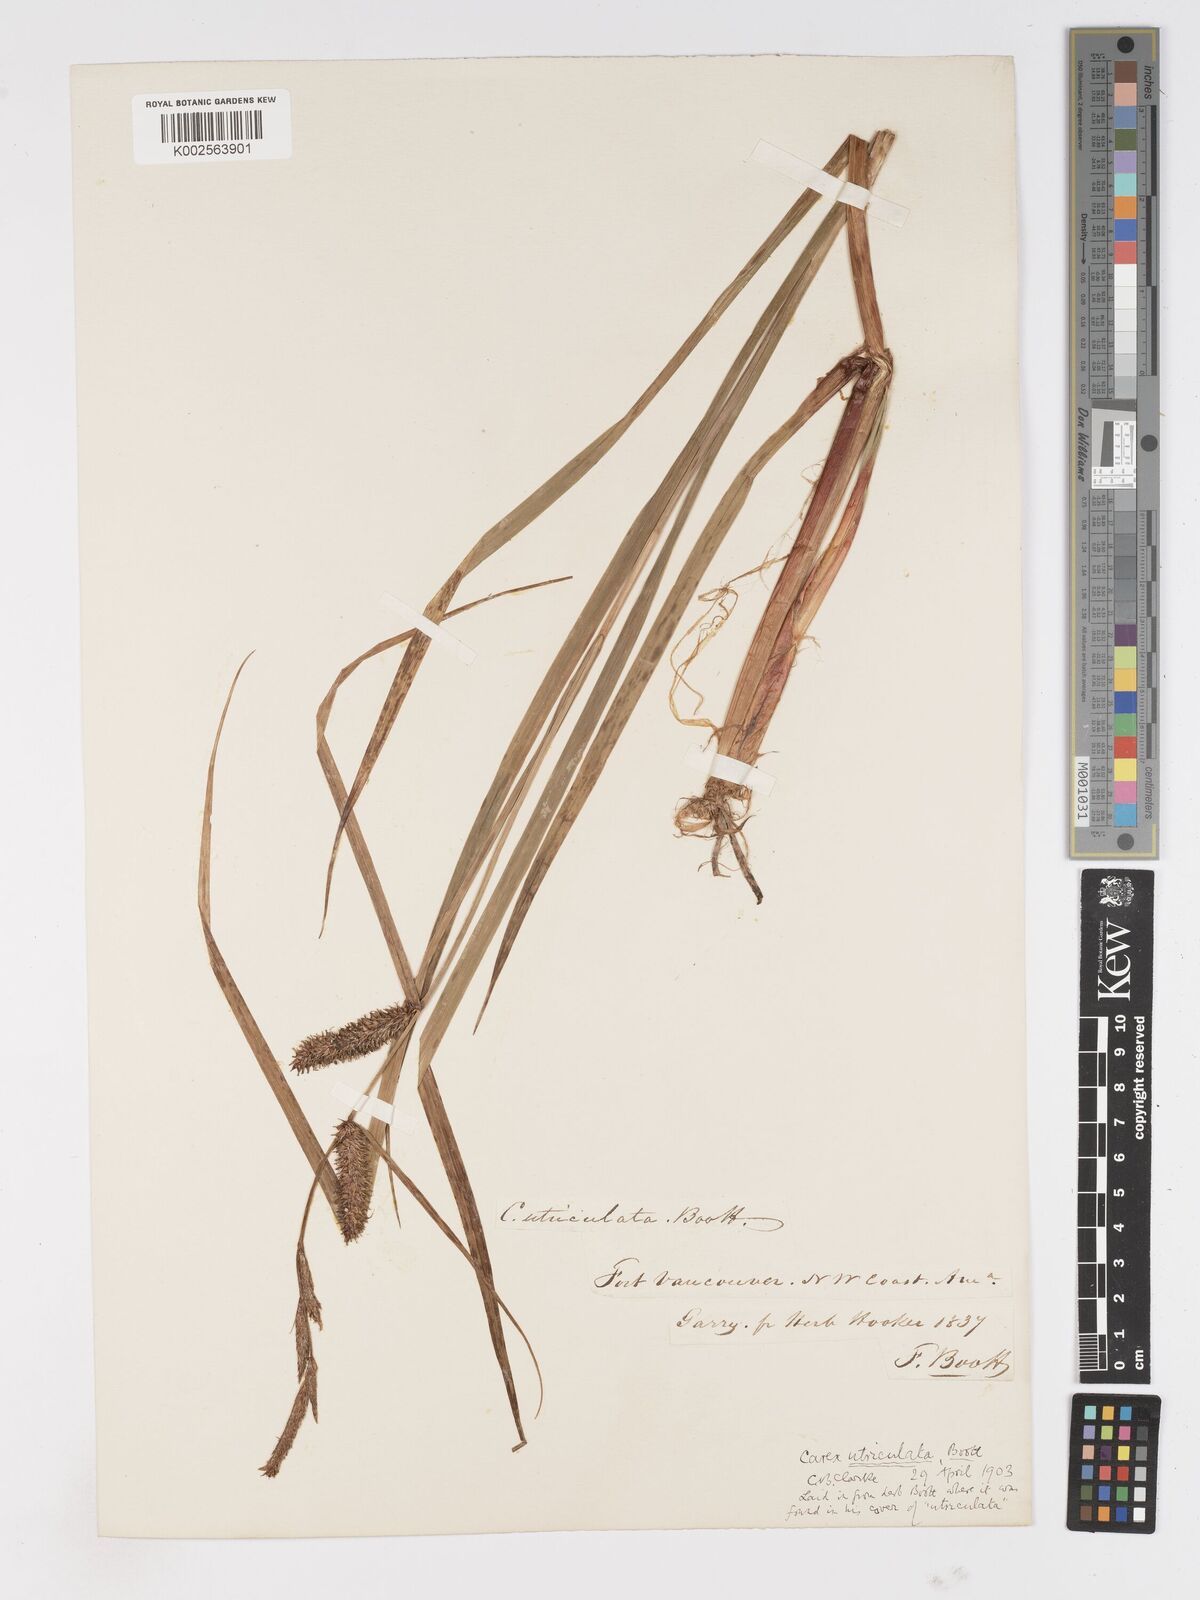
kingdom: Plantae
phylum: Tracheophyta
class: Liliopsida
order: Poales
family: Cyperaceae
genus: Carex
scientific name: Carex rostrata
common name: Bottle sedge
